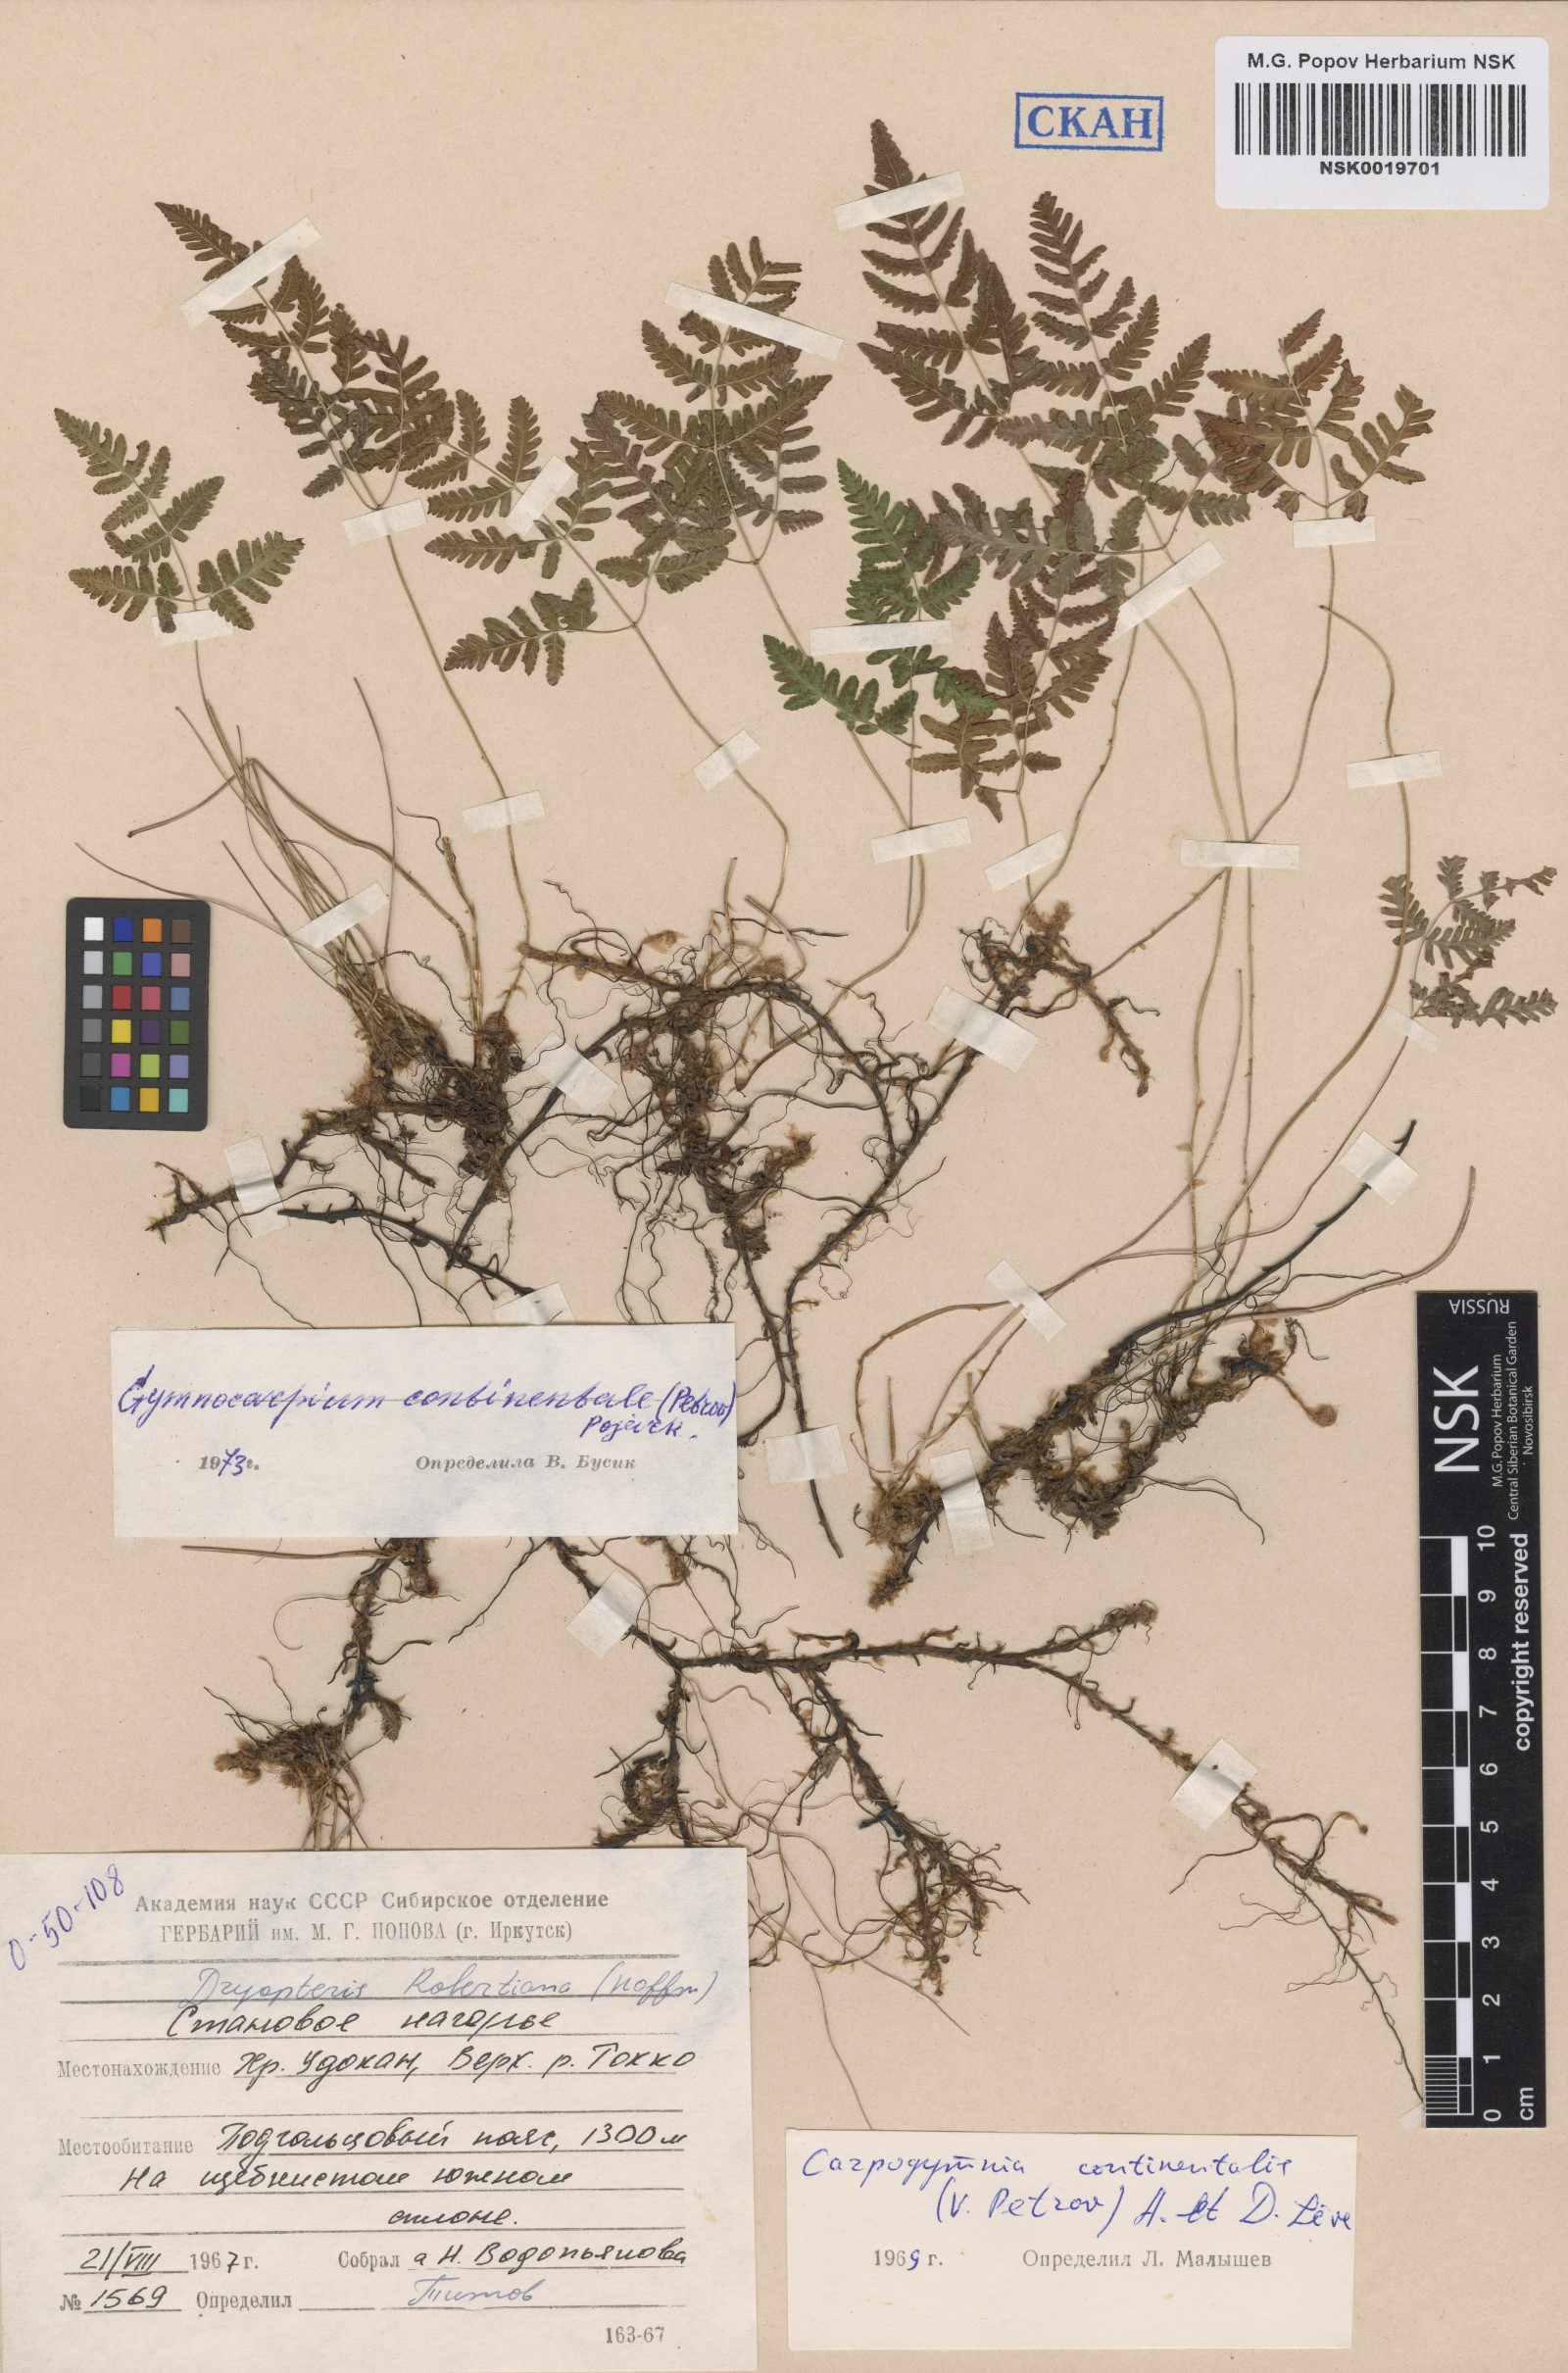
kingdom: Plantae
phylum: Tracheophyta
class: Polypodiopsida
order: Polypodiales
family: Cystopteridaceae
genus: Gymnocarpium
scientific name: Gymnocarpium continentale
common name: Asian oak fern
